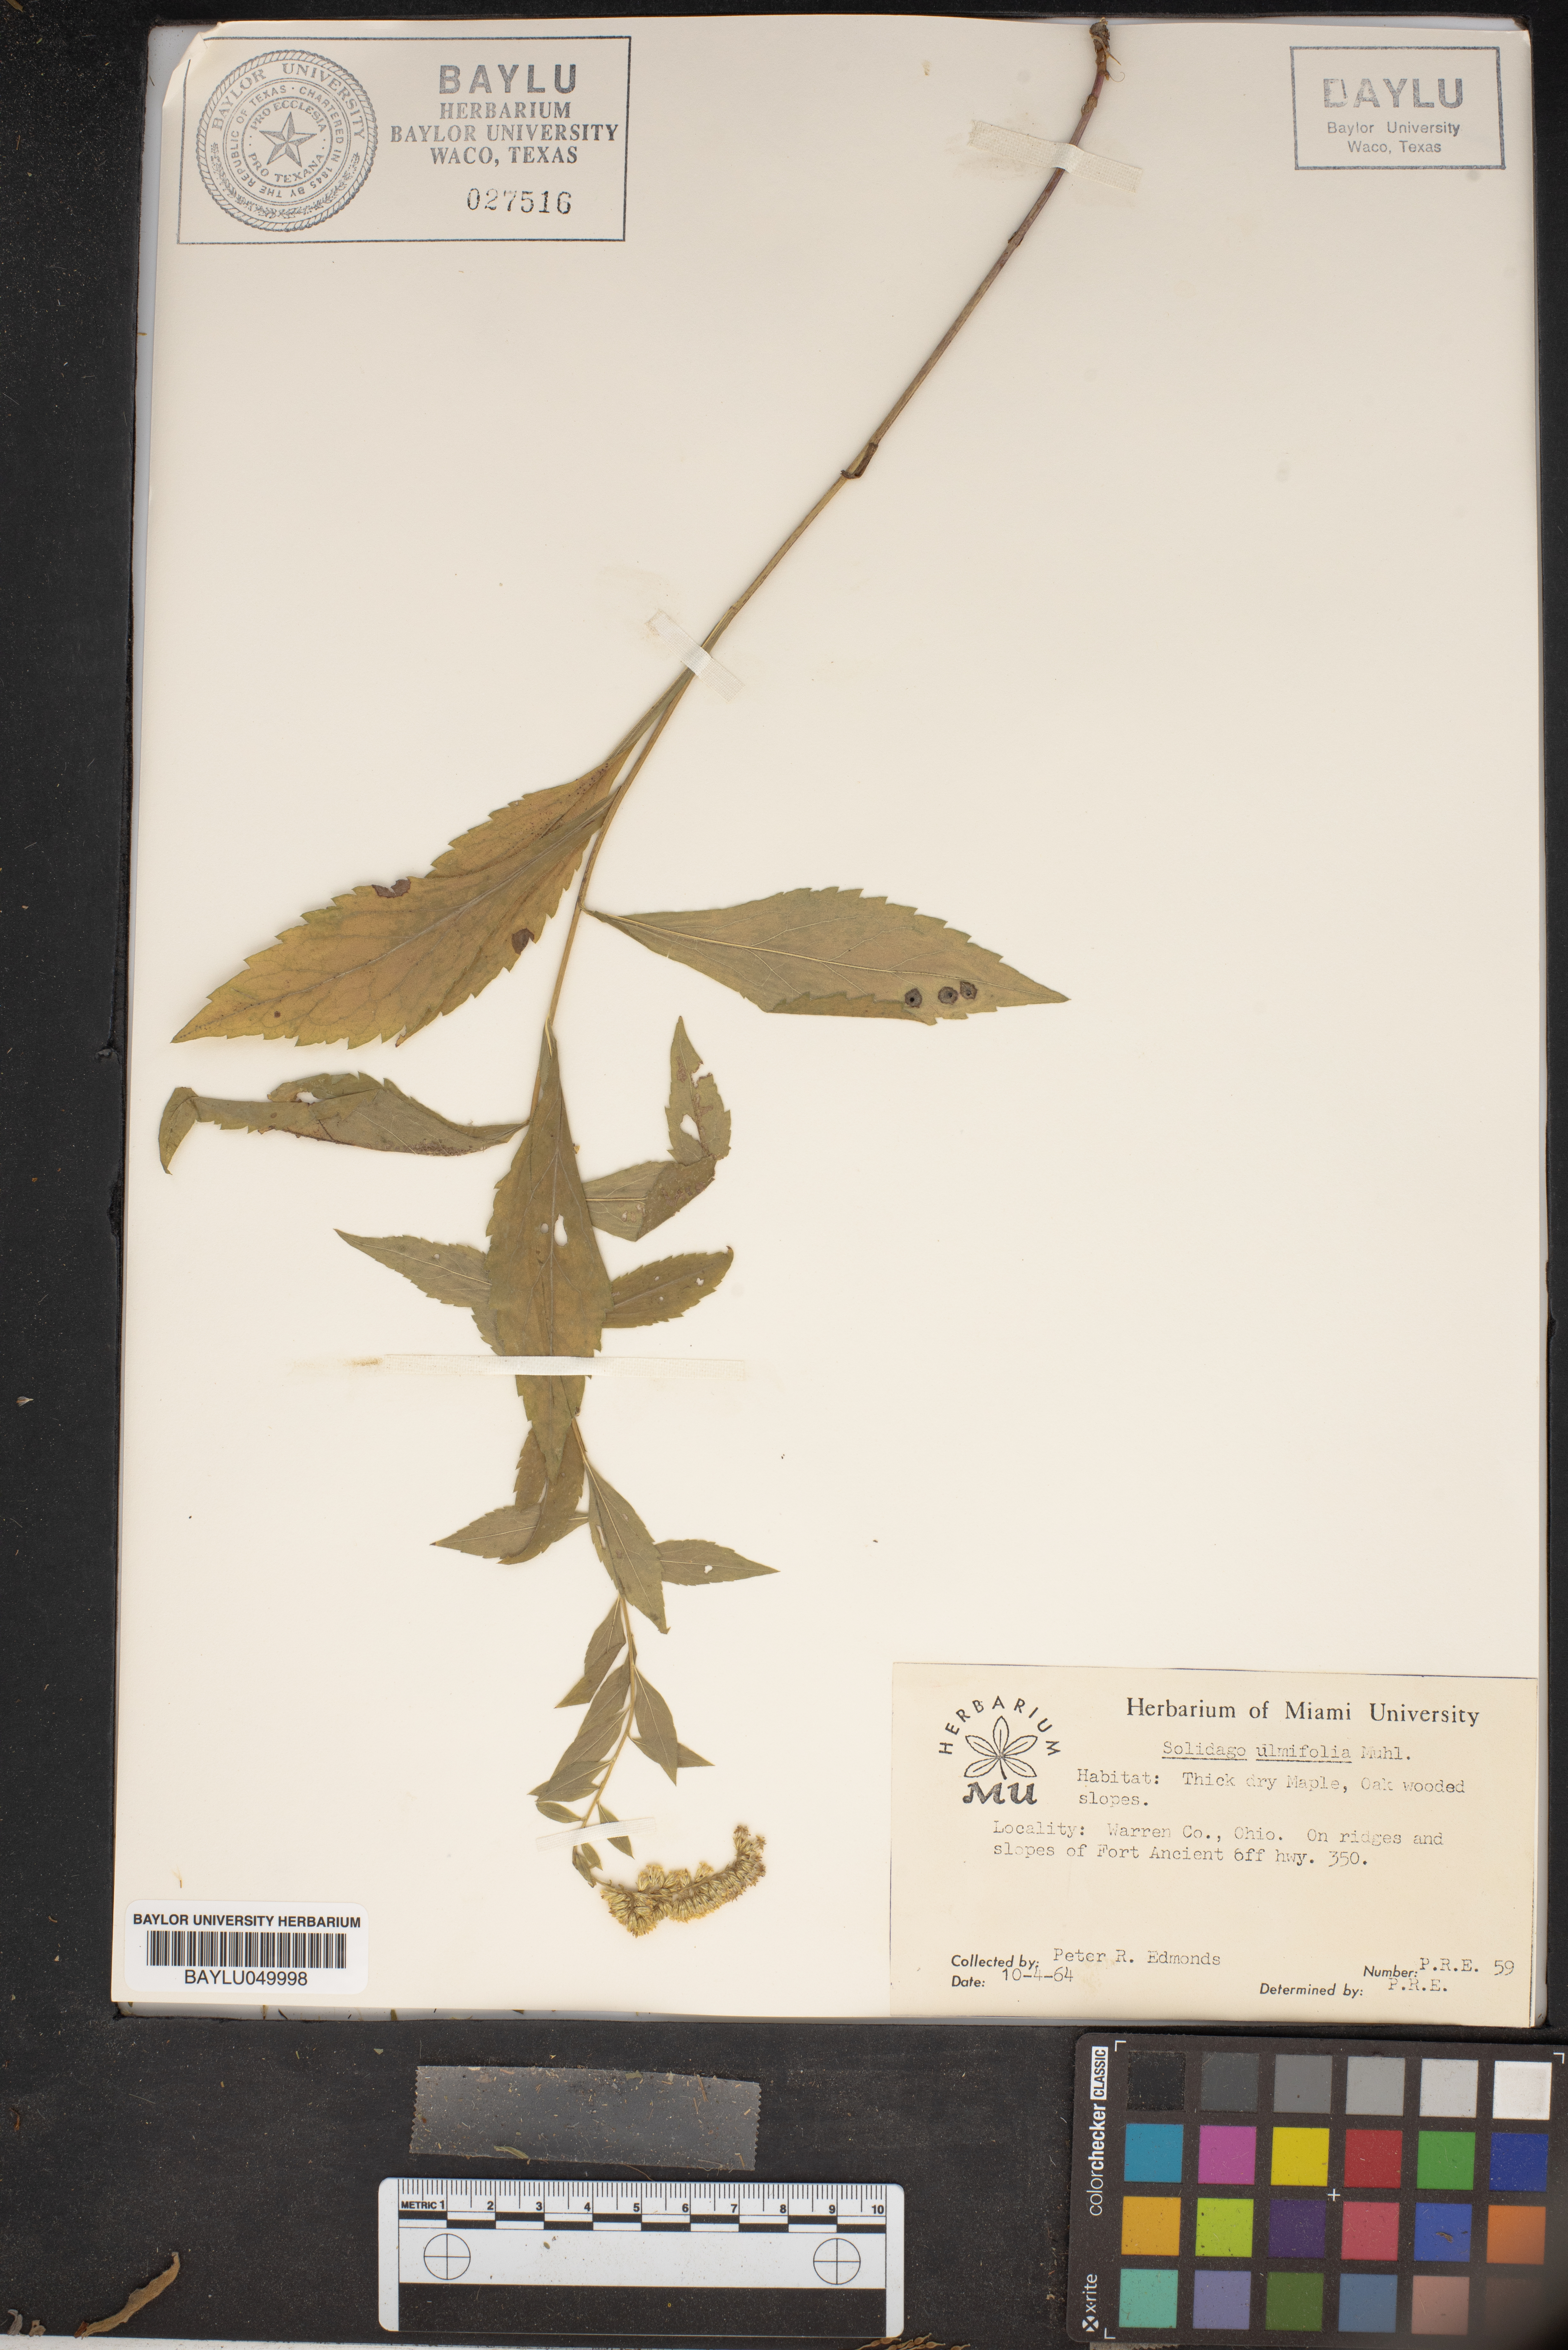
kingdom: Plantae
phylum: Tracheophyta
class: Magnoliopsida
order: Asterales
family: Asteraceae
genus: Solidago
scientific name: Solidago ulmifolia
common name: Elm-leaf goldenrod
